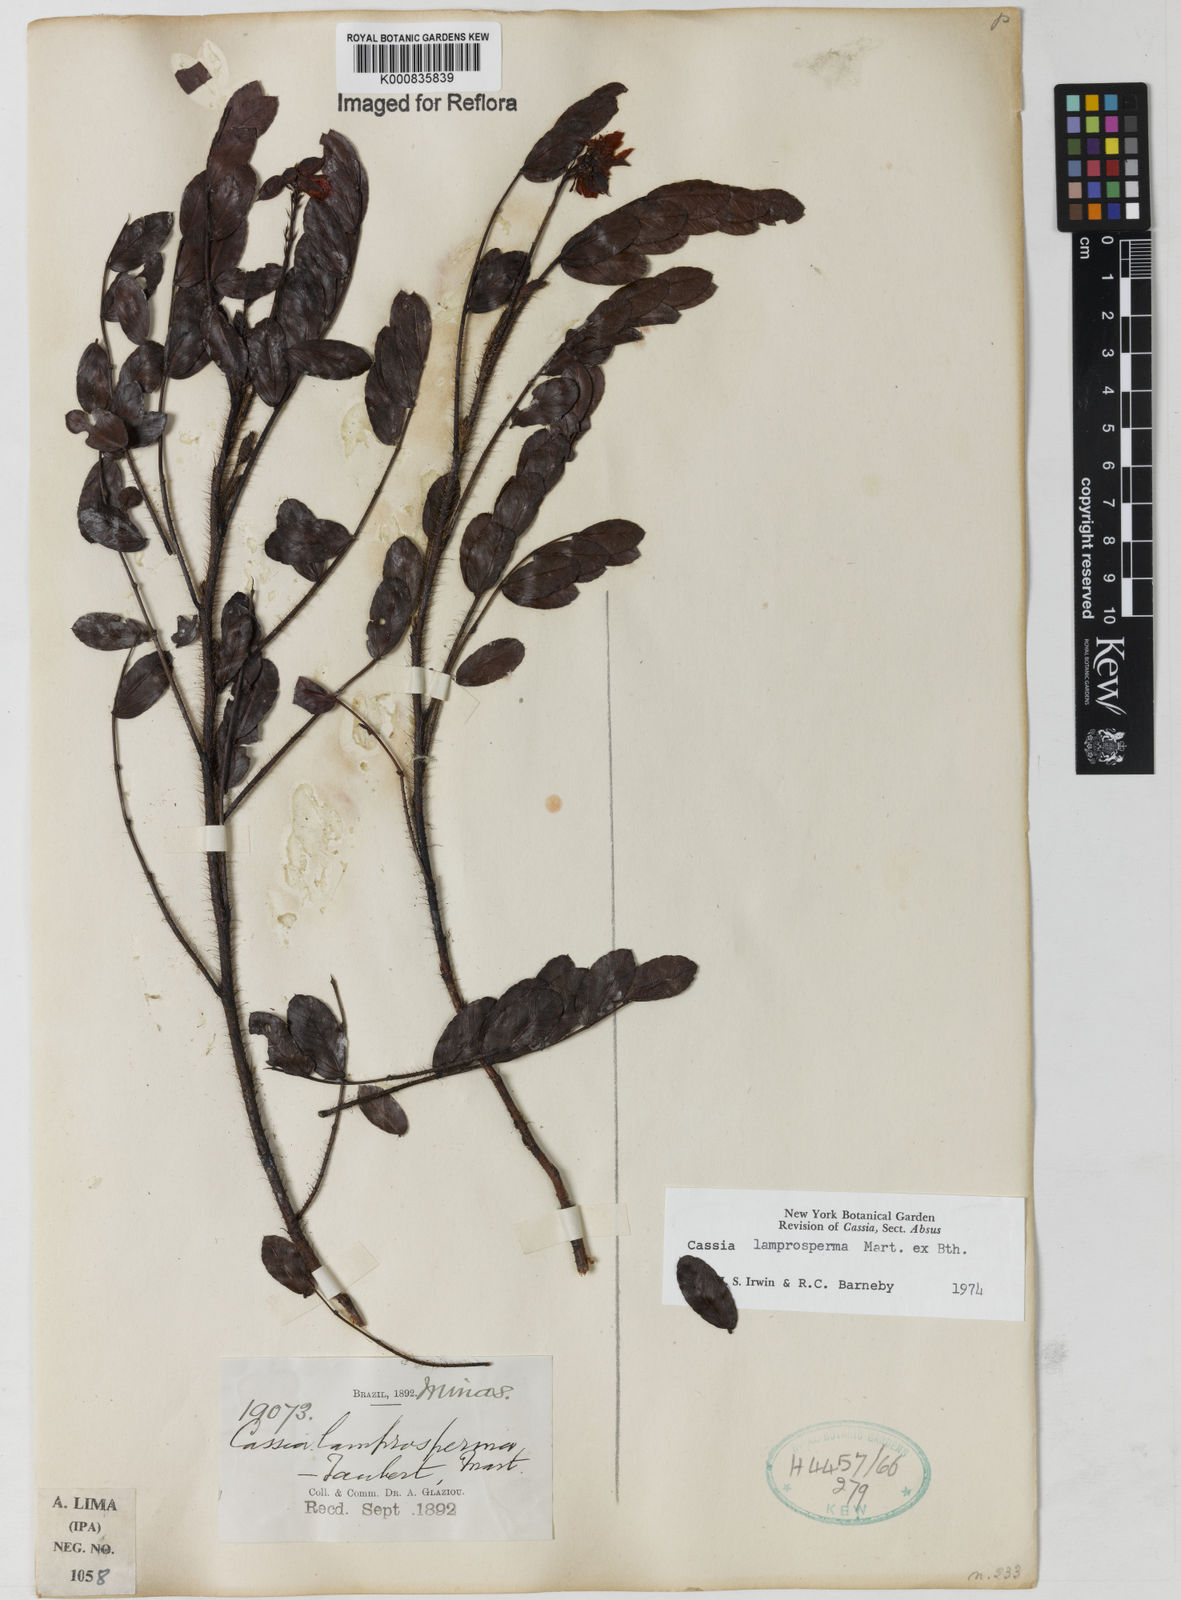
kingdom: Plantae
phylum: Tracheophyta
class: Magnoliopsida
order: Fabales
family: Fabaceae
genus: Chamaecrista
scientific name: Chamaecrista lamprosperma
